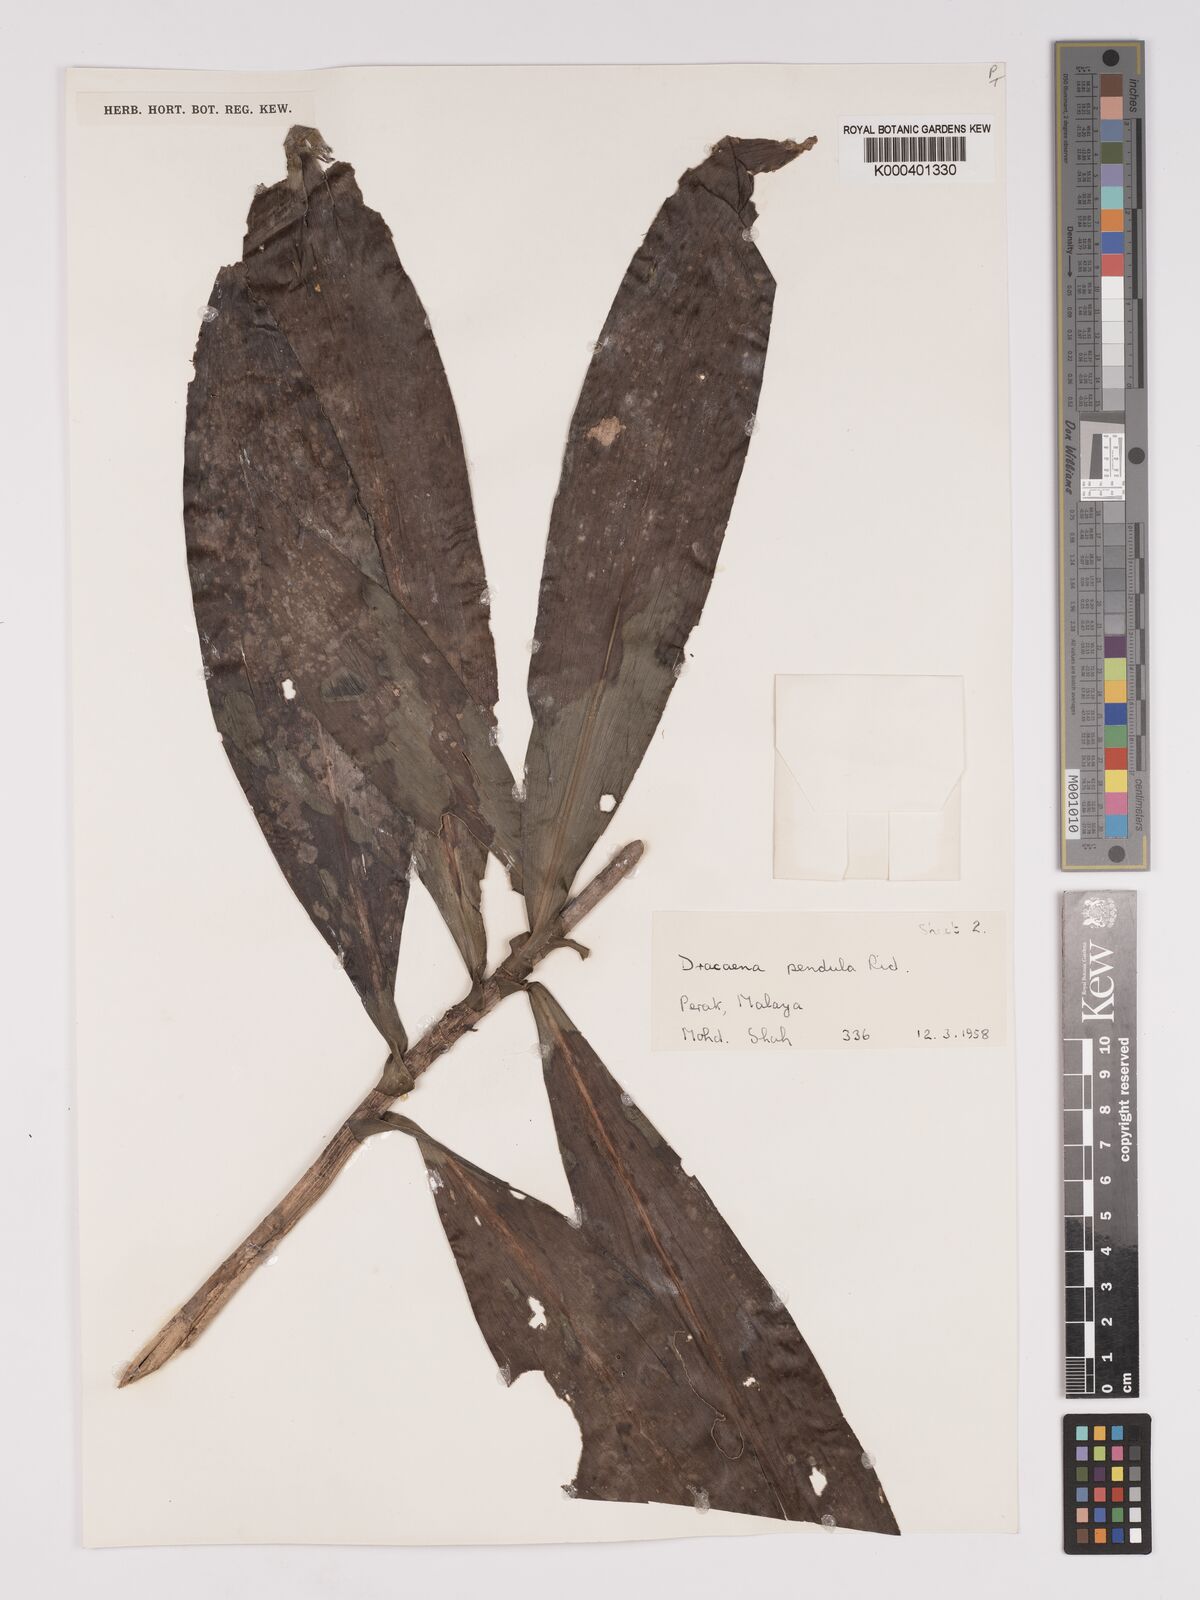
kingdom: Plantae
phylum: Tracheophyta
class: Liliopsida
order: Asparagales
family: Asparagaceae
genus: Dracaena
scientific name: Dracaena pendula
